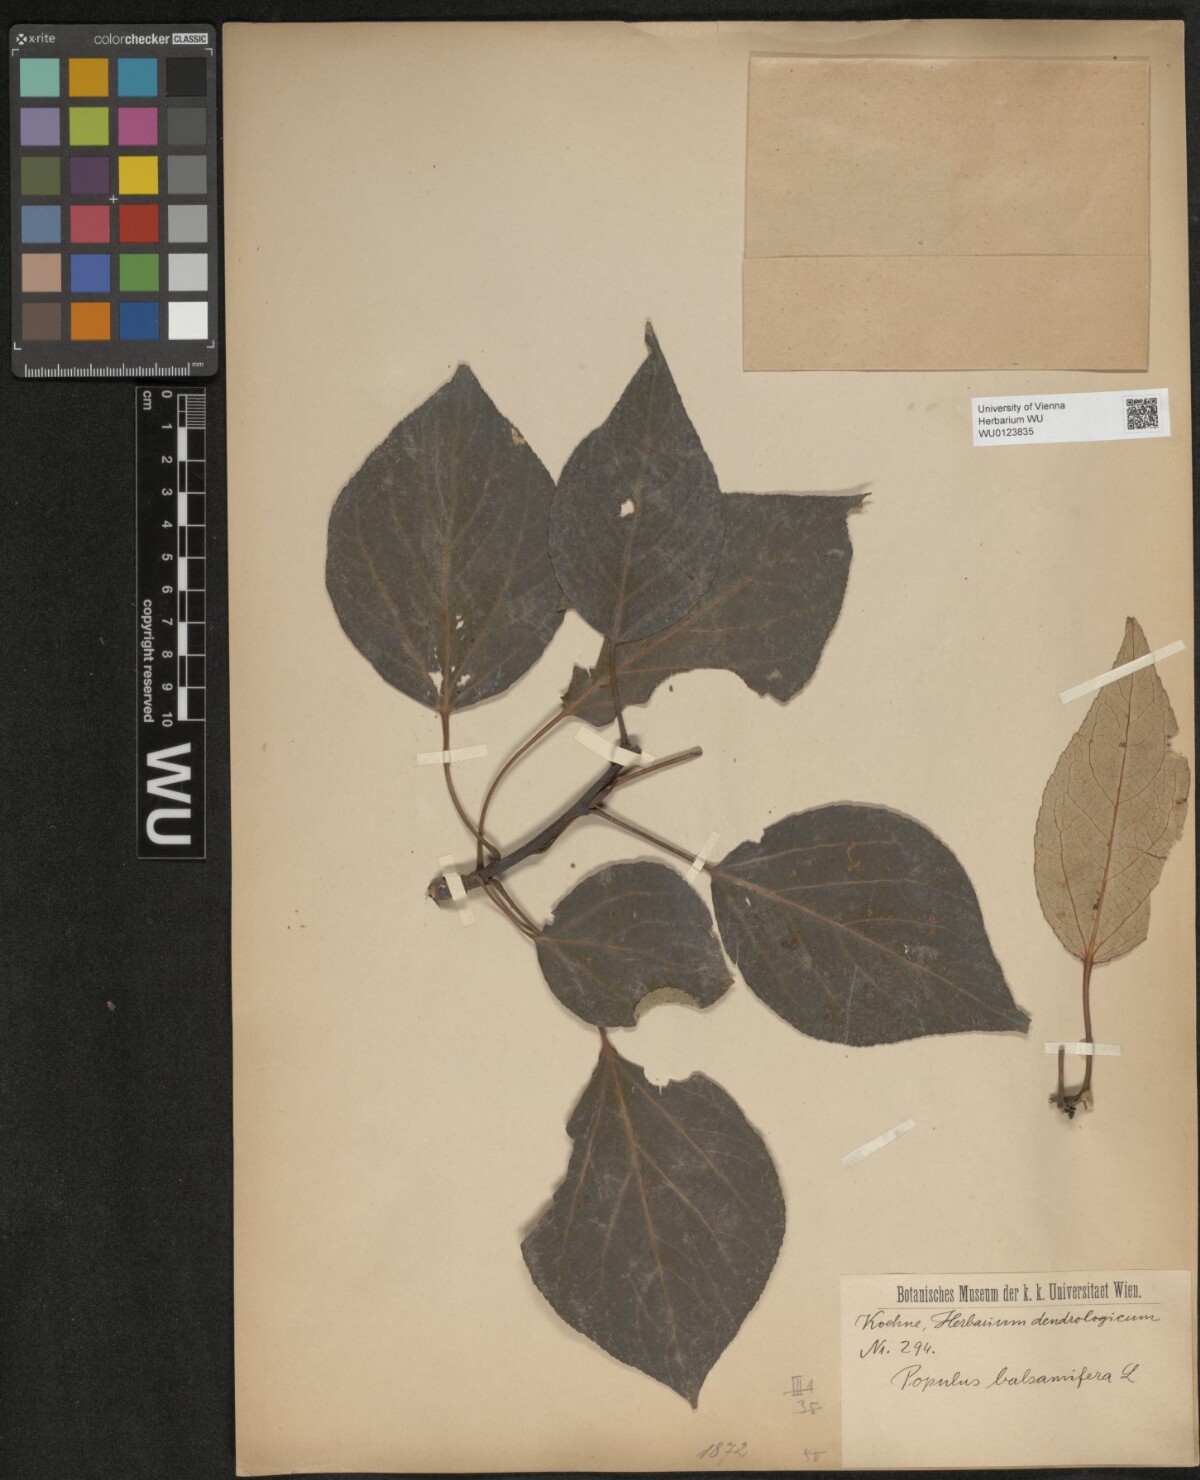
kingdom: Plantae
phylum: Tracheophyta
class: Magnoliopsida
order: Malpighiales
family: Salicaceae
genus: Populus
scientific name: Populus balsamifera
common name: Balsam poplar
